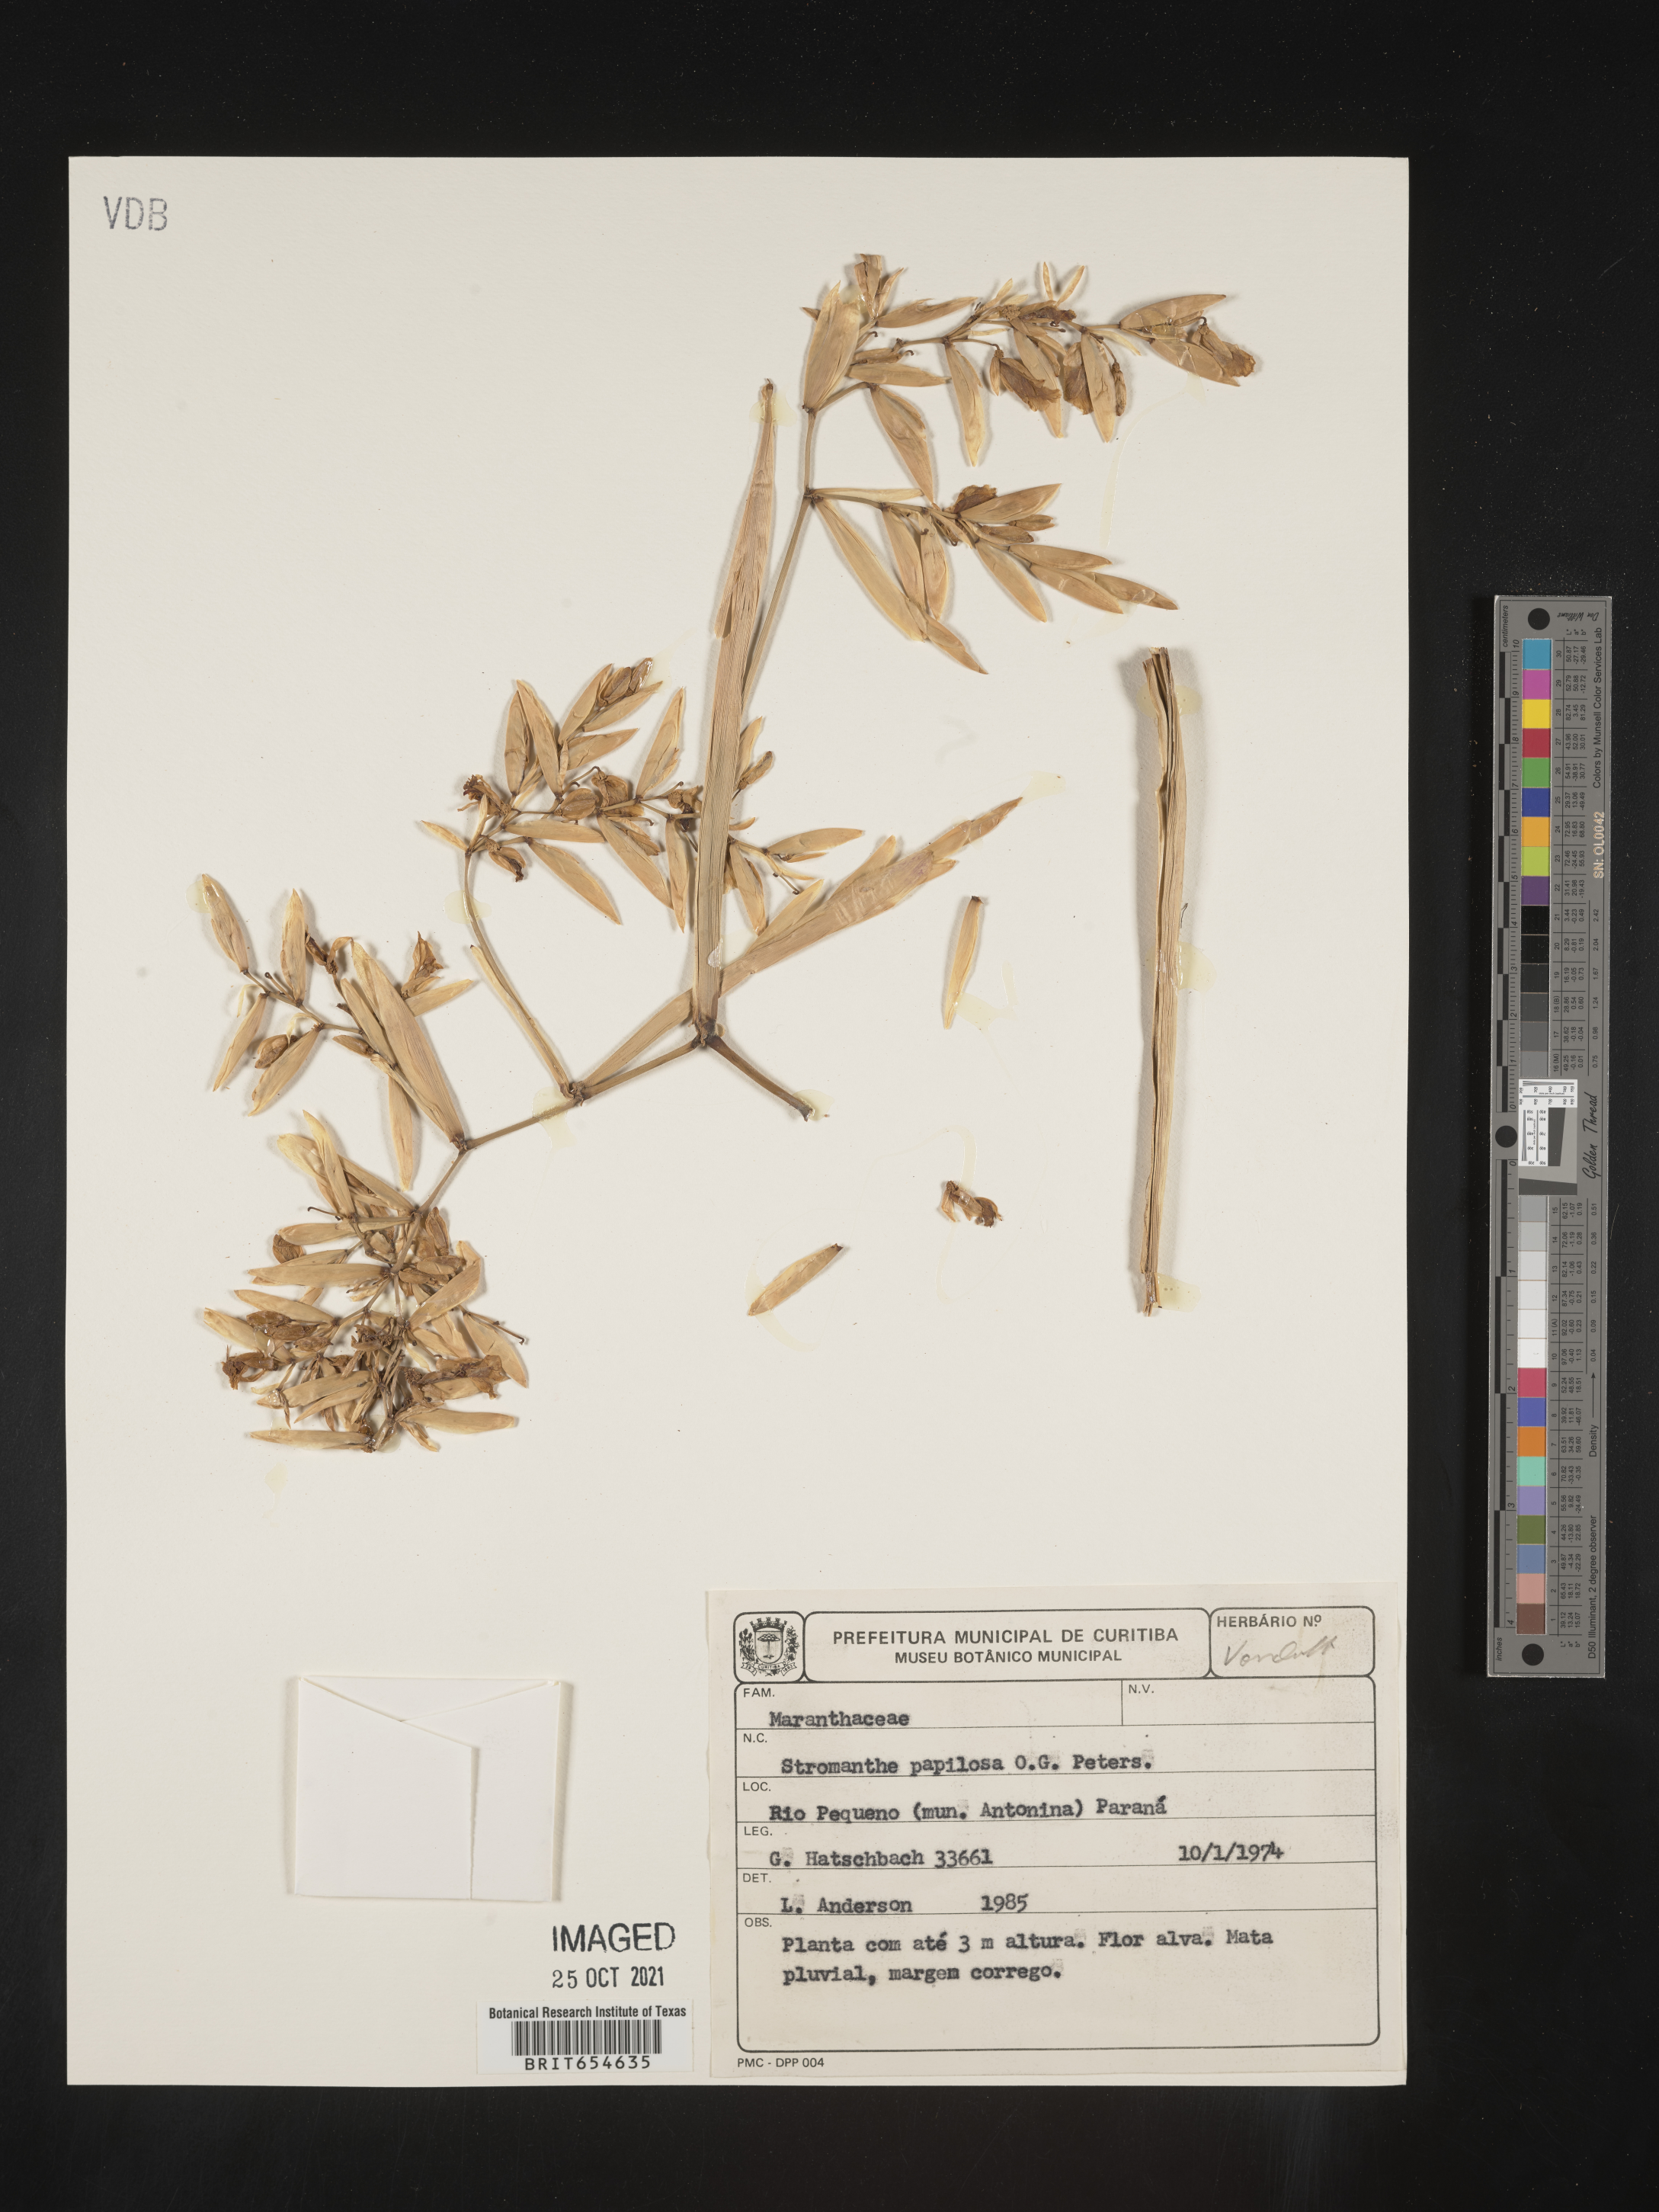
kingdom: Plantae
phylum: Tracheophyta
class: Liliopsida
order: Zingiberales
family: Marantaceae
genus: Stromanthe
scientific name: Stromanthe
